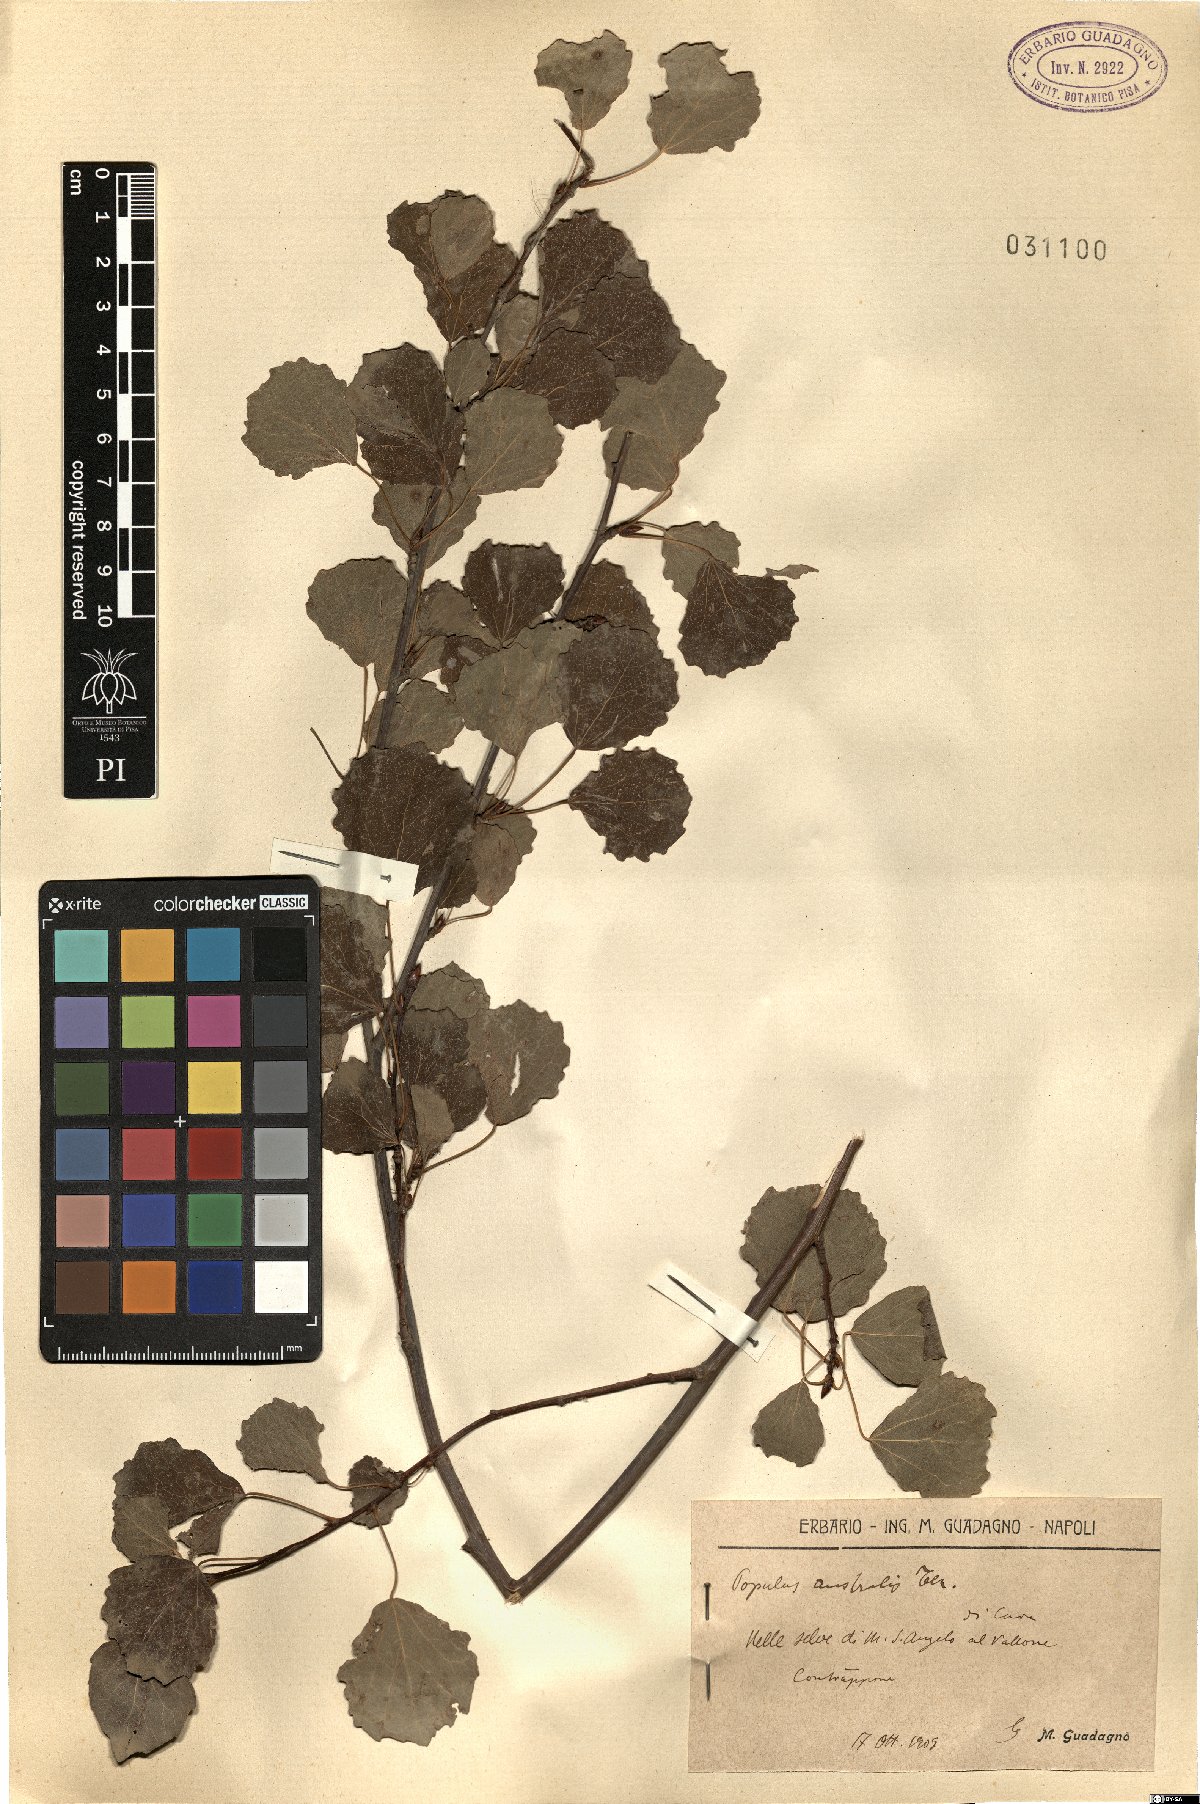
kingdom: Plantae
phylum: Tracheophyta
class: Magnoliopsida
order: Malpighiales
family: Salicaceae
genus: Populus
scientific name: Populus tremula
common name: European aspen
